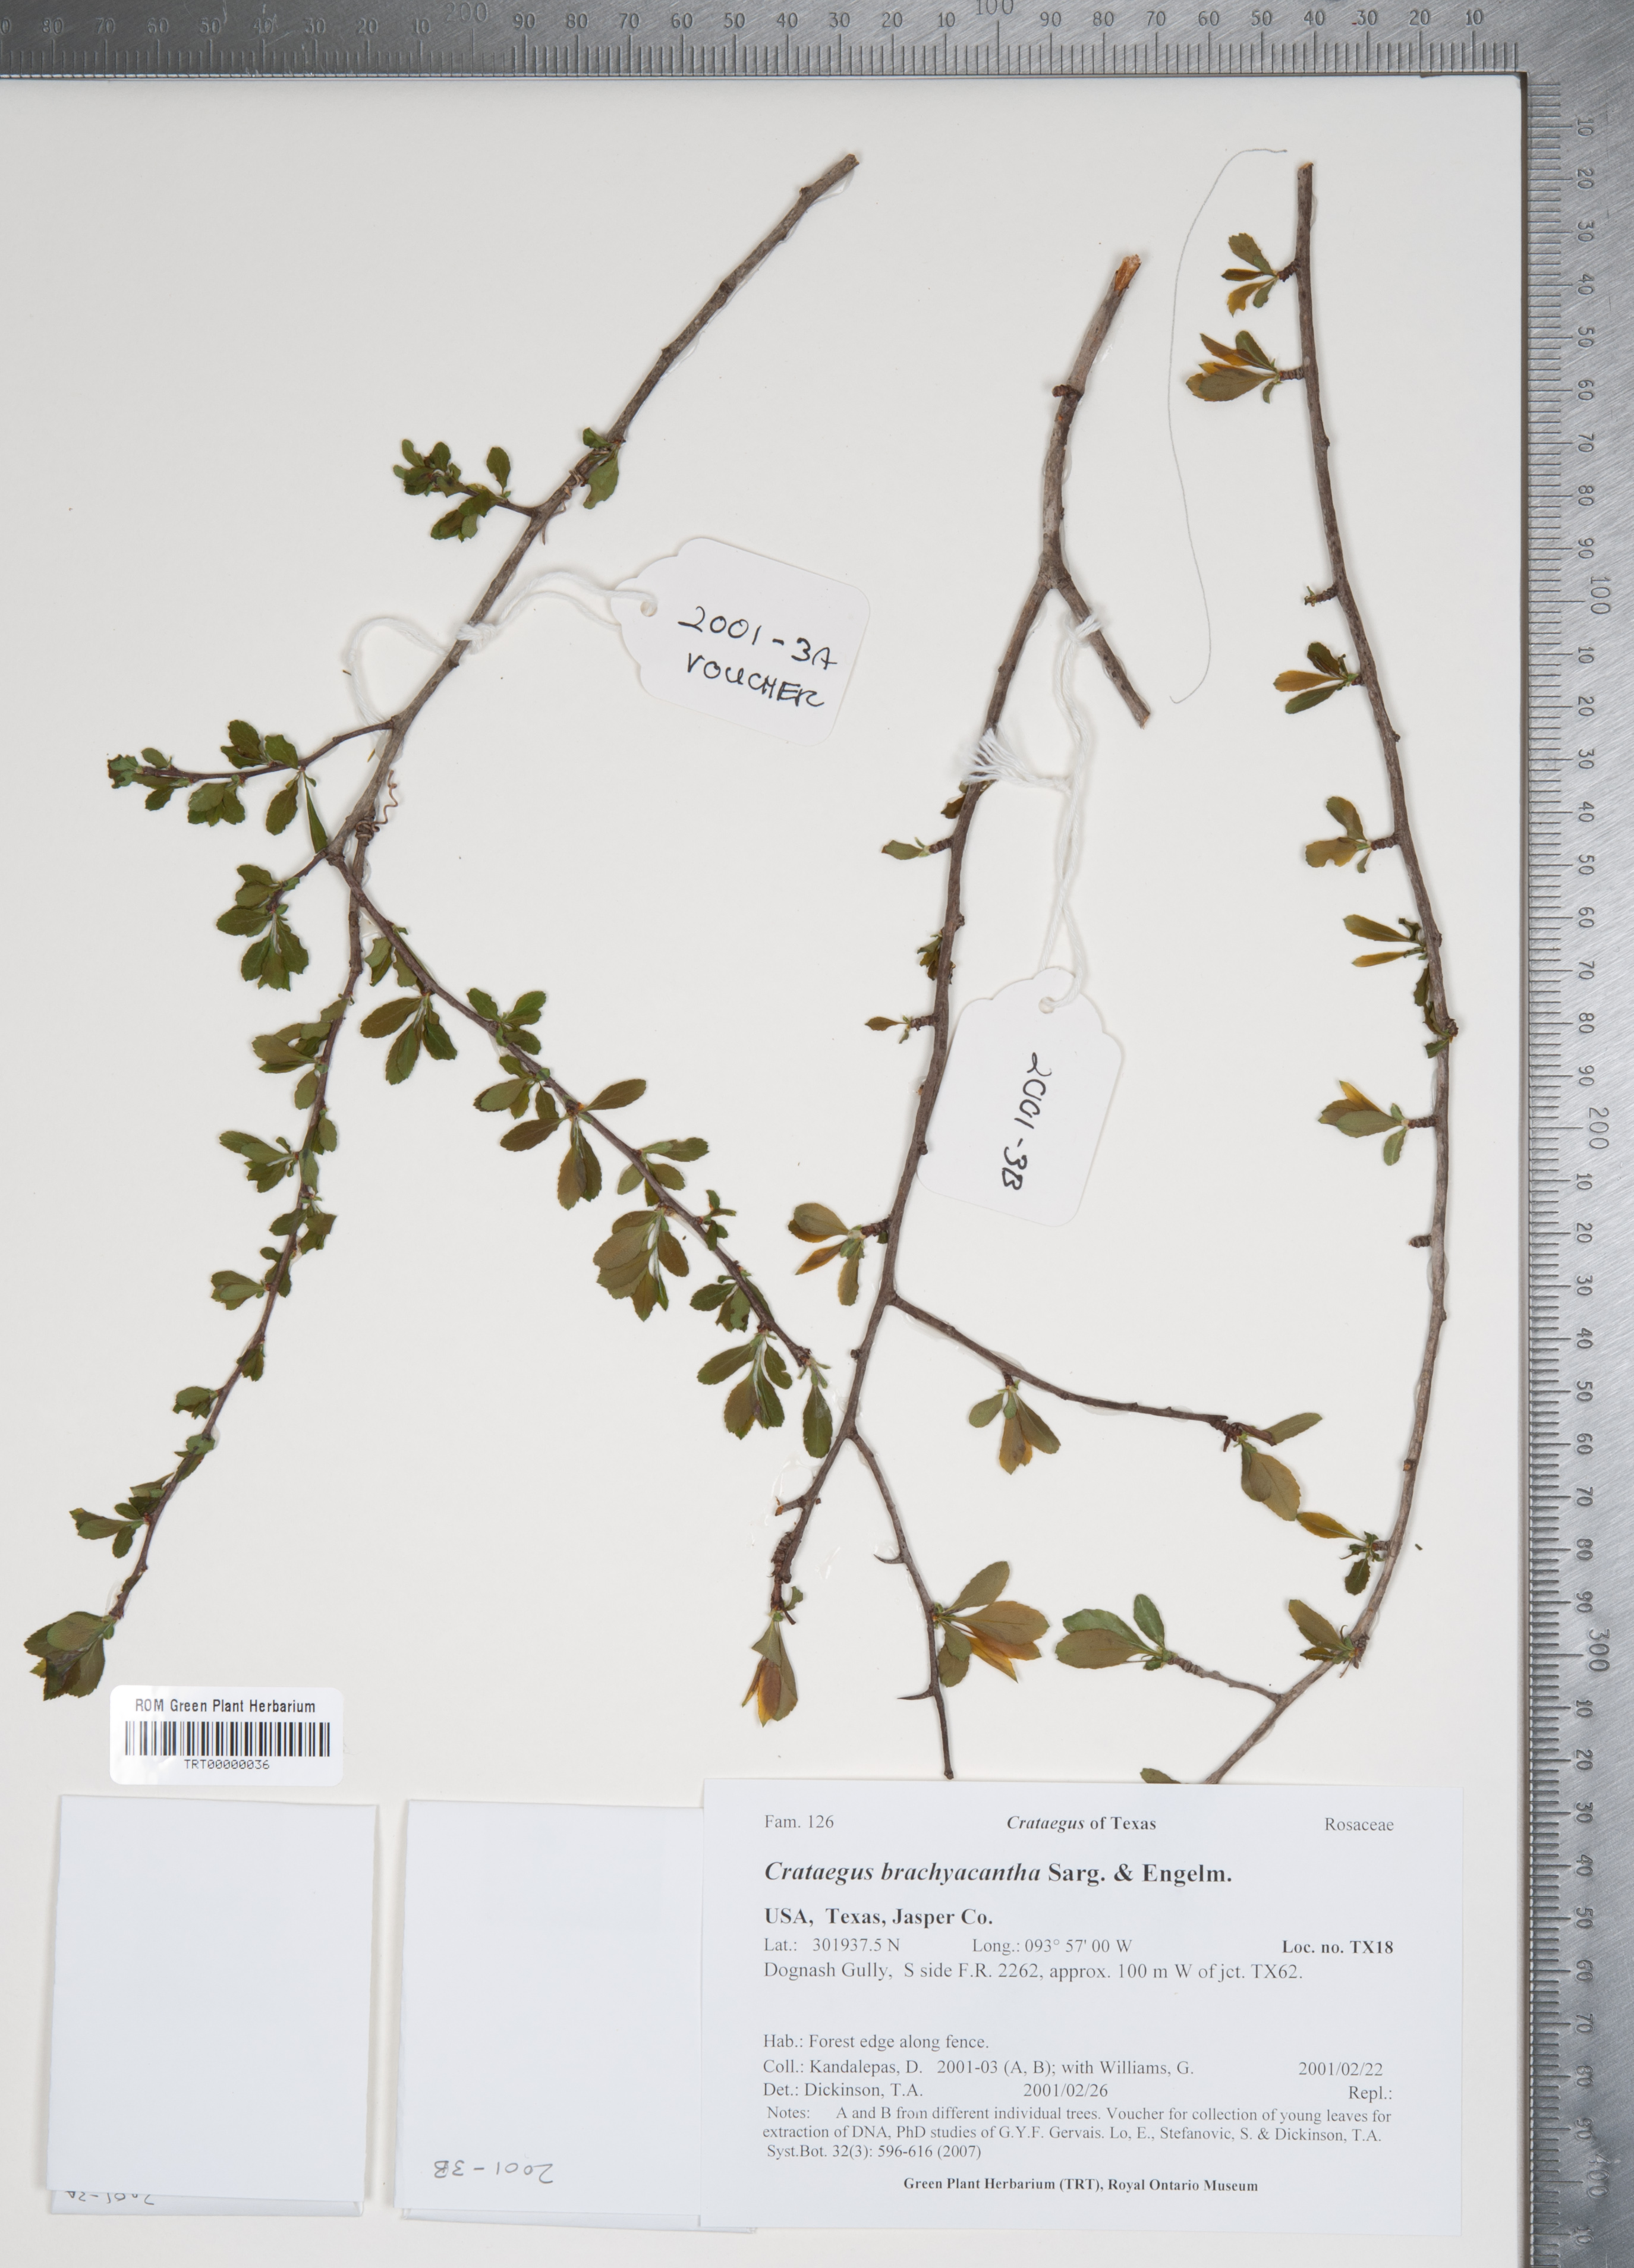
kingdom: Plantae
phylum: Tracheophyta
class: Magnoliopsida
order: Rosales
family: Rosaceae
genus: Crataegus
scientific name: Crataegus brachyacantha
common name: Blueberry-hawthorn
